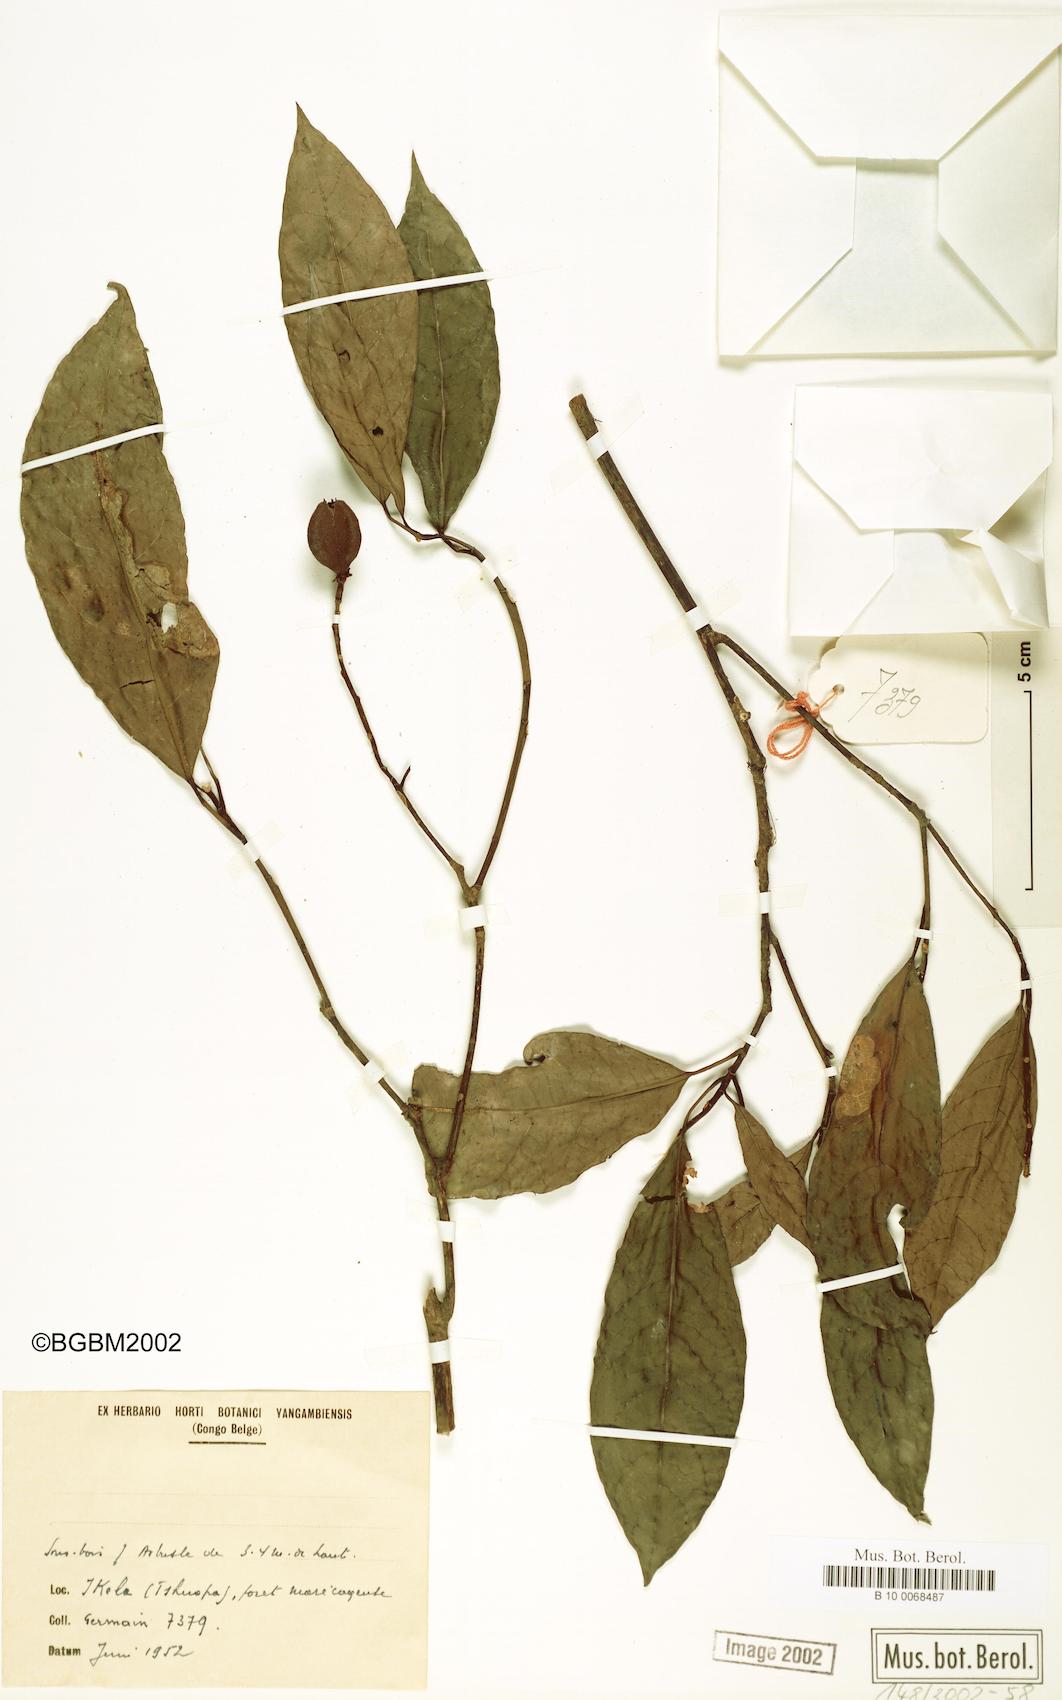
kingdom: Plantae
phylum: Tracheophyta
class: Magnoliopsida
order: Malpighiales
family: Violaceae
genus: Rinorea
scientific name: Rinorea
